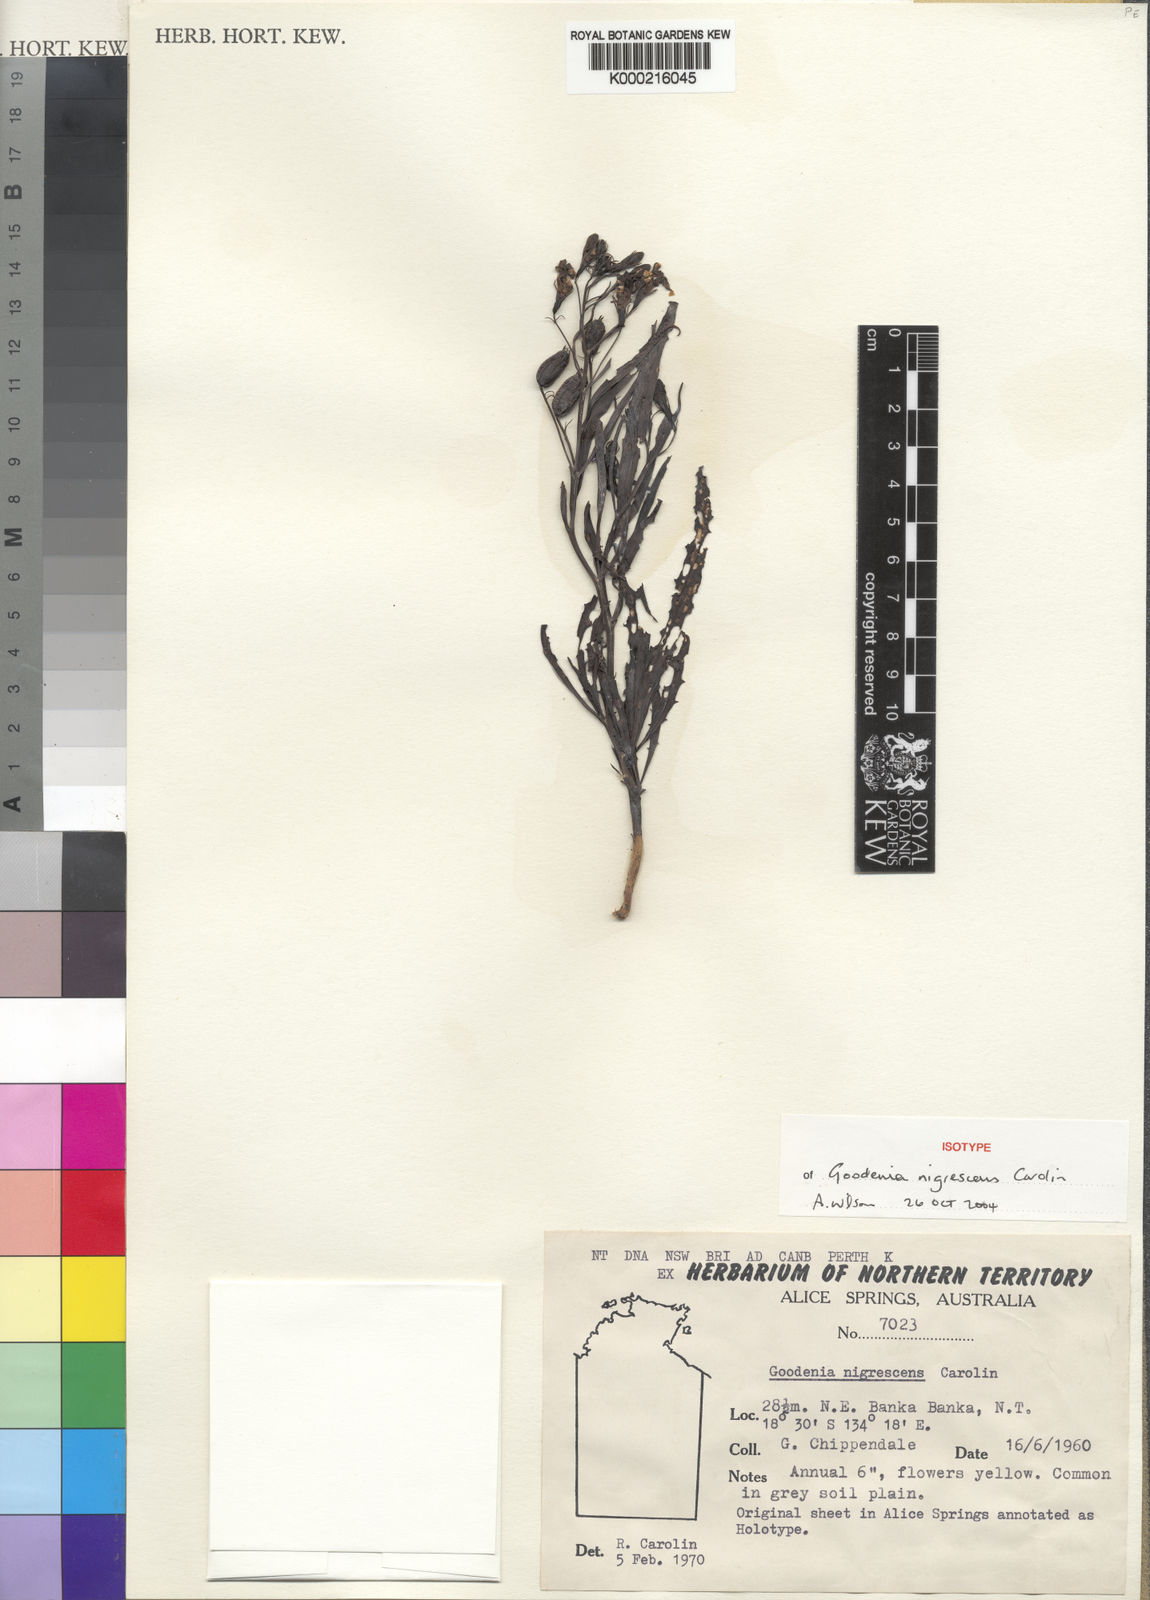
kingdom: Plantae
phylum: Tracheophyta
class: Magnoliopsida
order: Asterales
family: Goodeniaceae
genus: Goodenia
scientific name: Goodenia nigrescens
